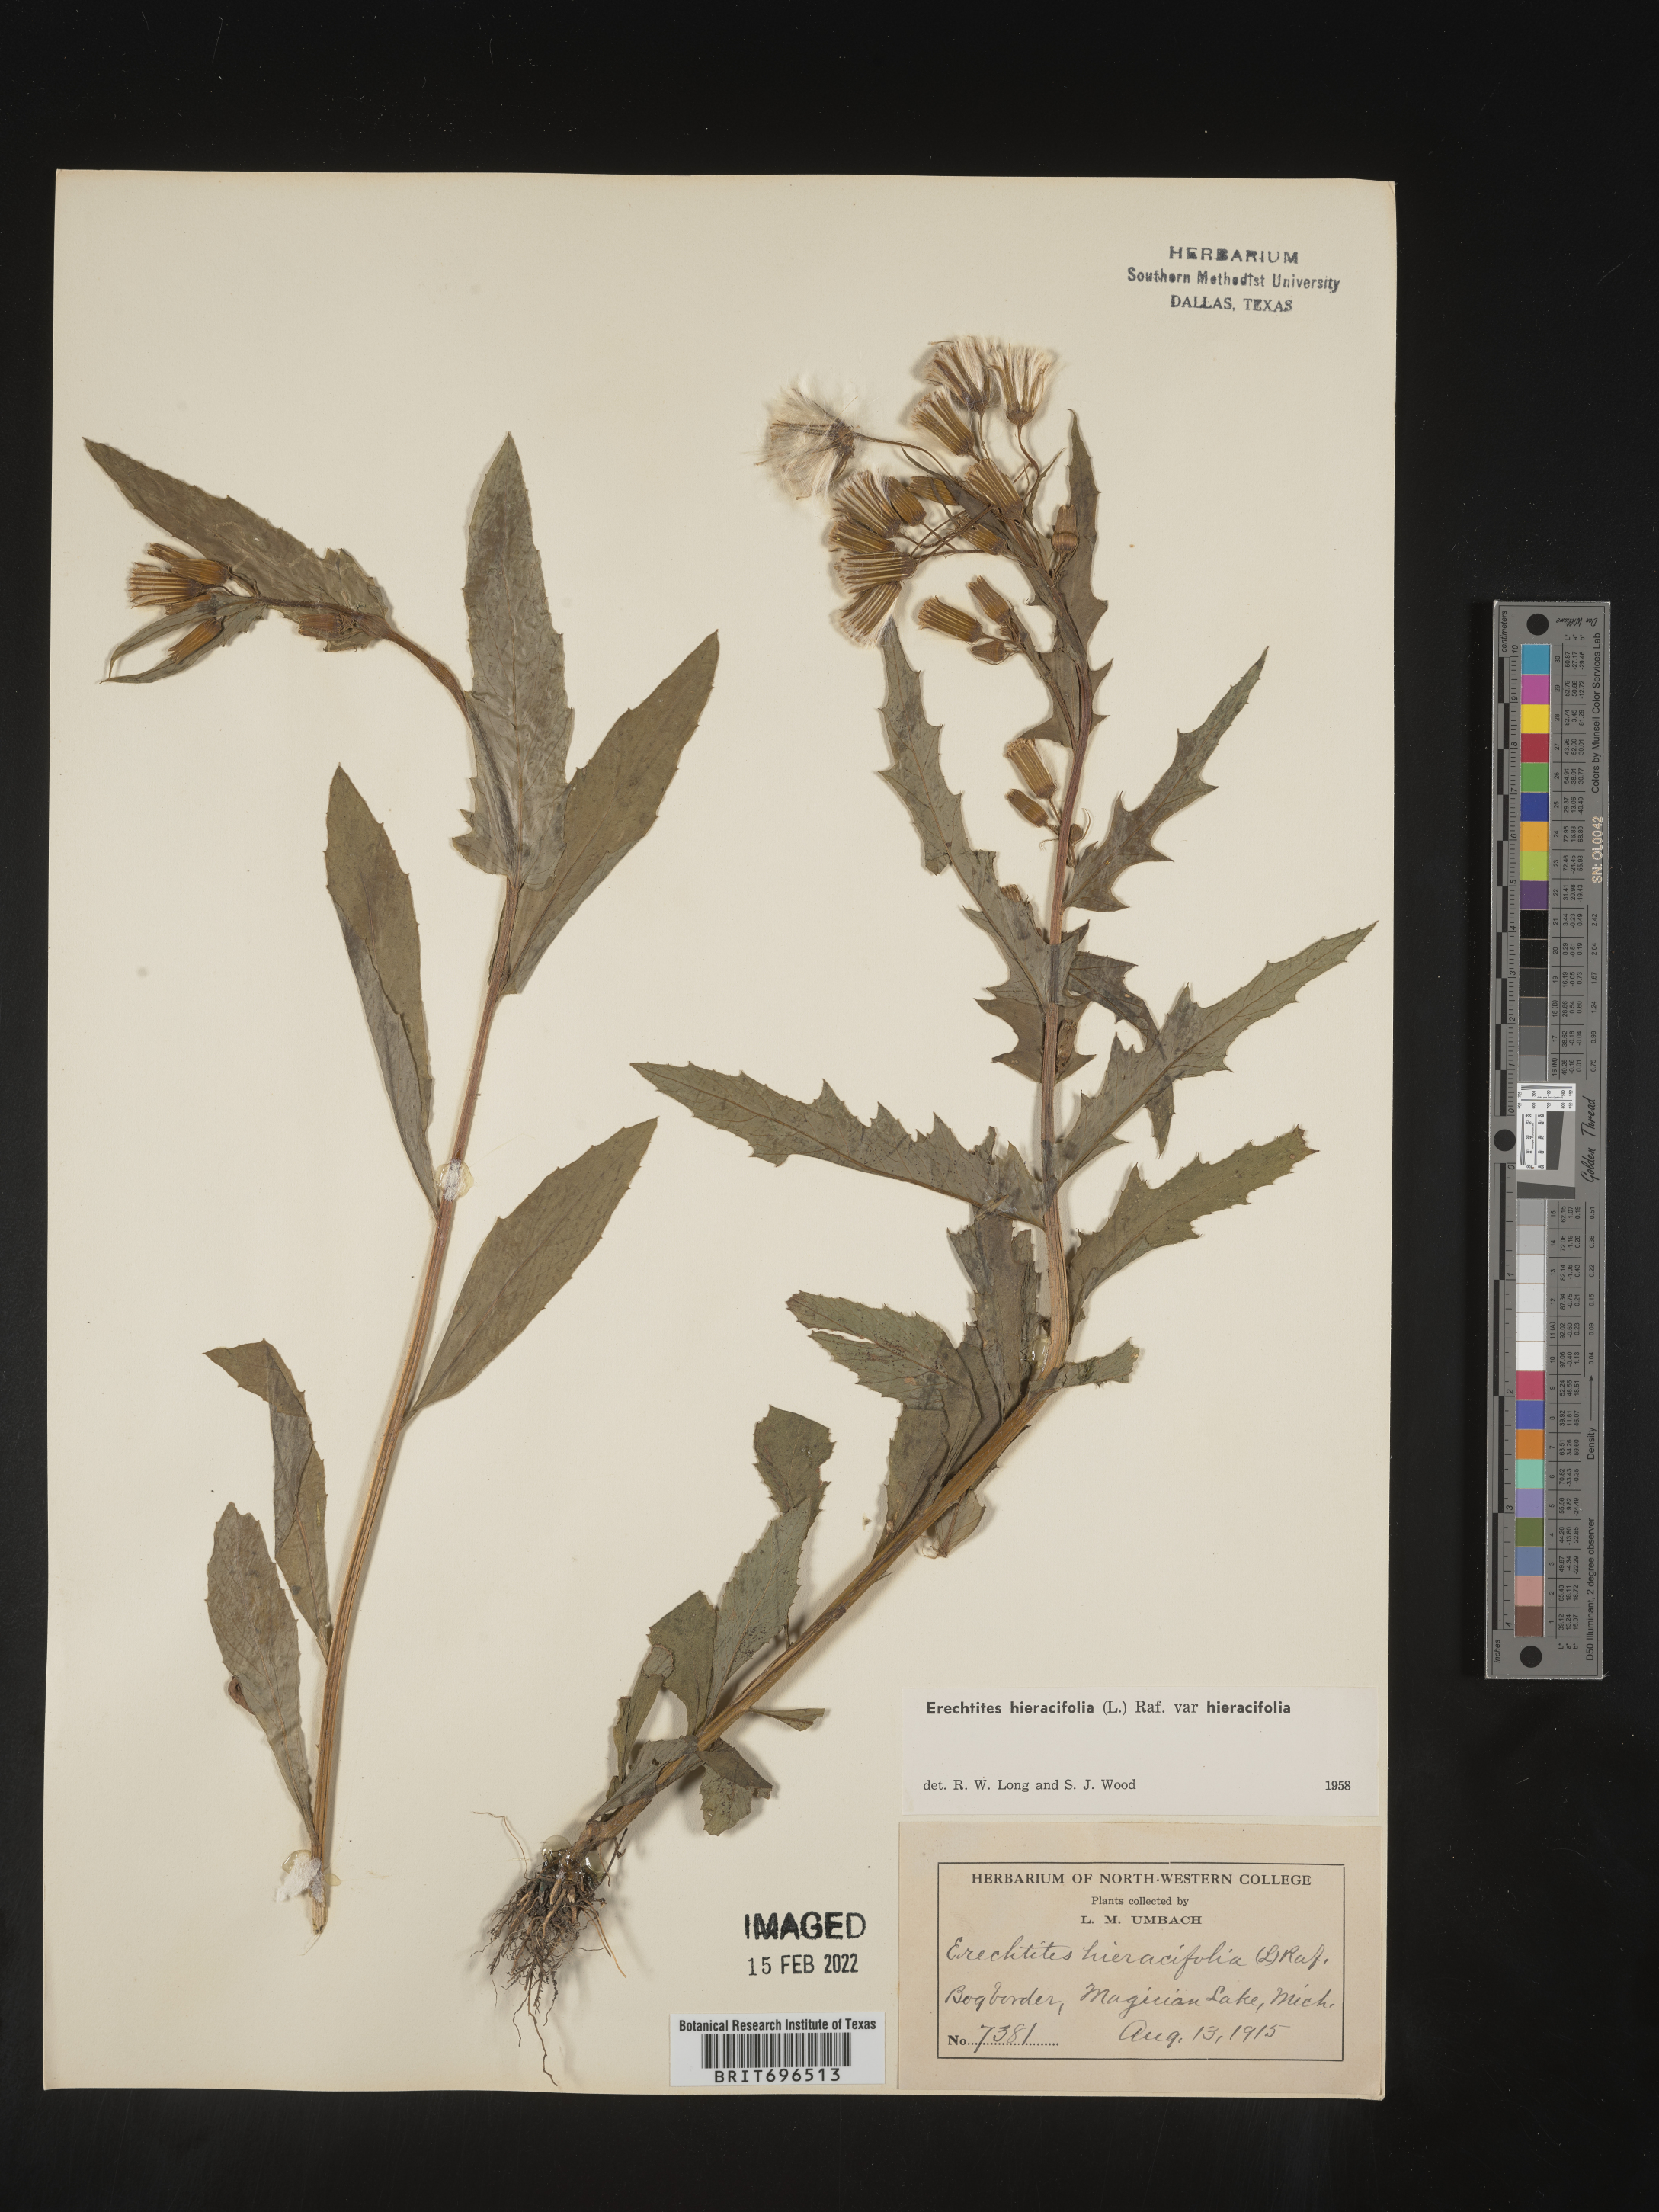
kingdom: Plantae
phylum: Tracheophyta
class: Magnoliopsida
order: Asterales
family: Asteraceae
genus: Erechtites
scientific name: Erechtites hieraciifolius
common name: American burnweed
